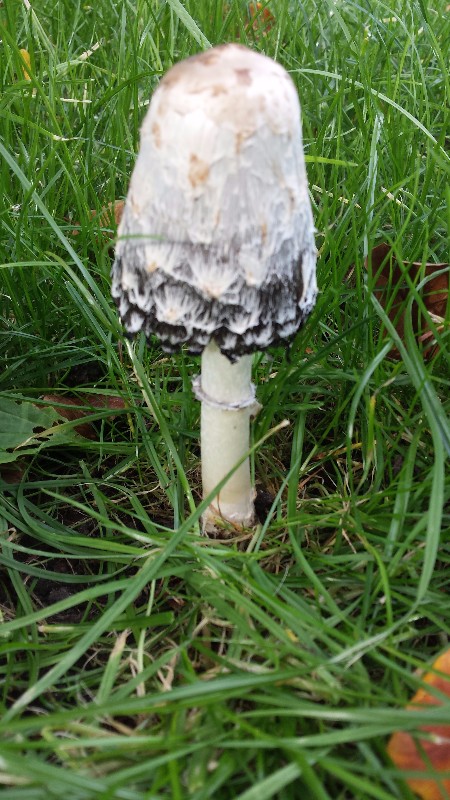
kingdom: Fungi
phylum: Basidiomycota
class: Agaricomycetes
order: Agaricales
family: Agaricaceae
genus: Coprinus
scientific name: Coprinus comatus
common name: stor parykhat
